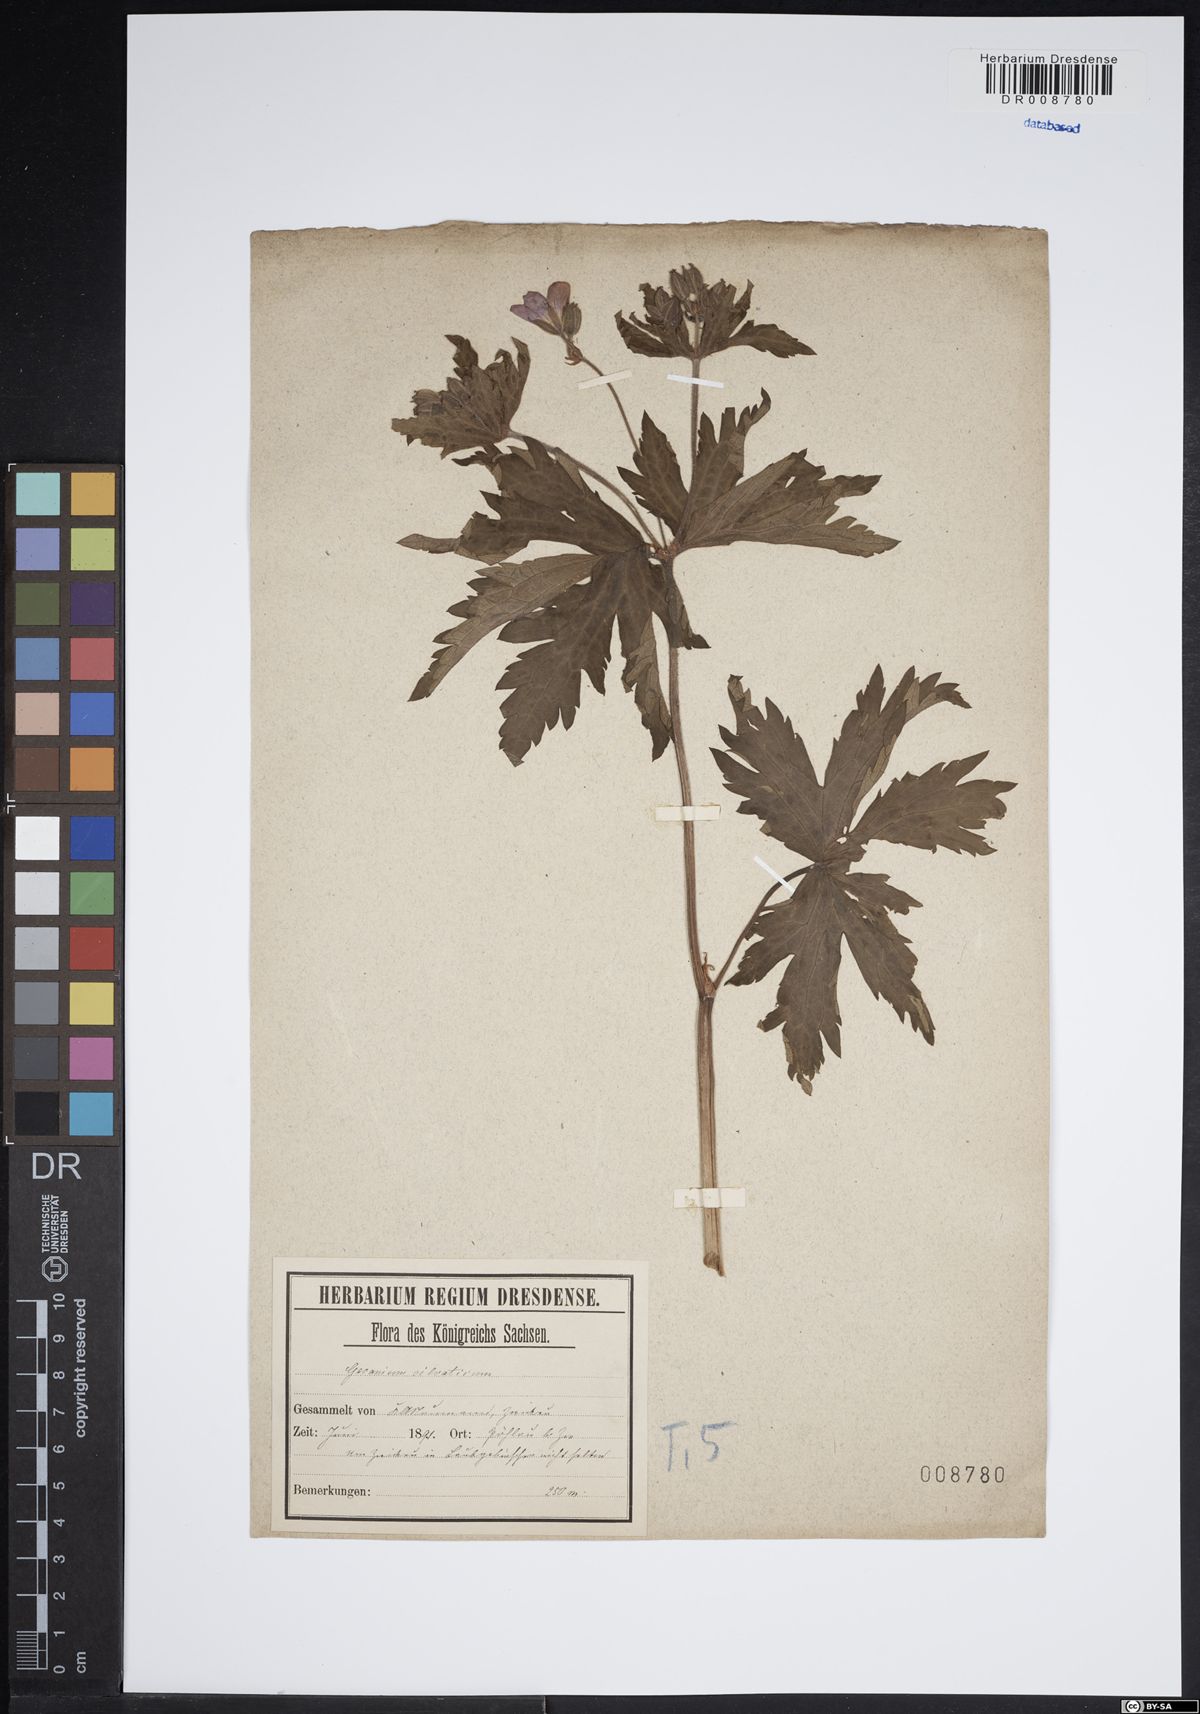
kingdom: Plantae
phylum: Tracheophyta
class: Magnoliopsida
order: Geraniales
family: Geraniaceae
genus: Geranium
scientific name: Geranium sylvaticum
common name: Wood crane's-bill
